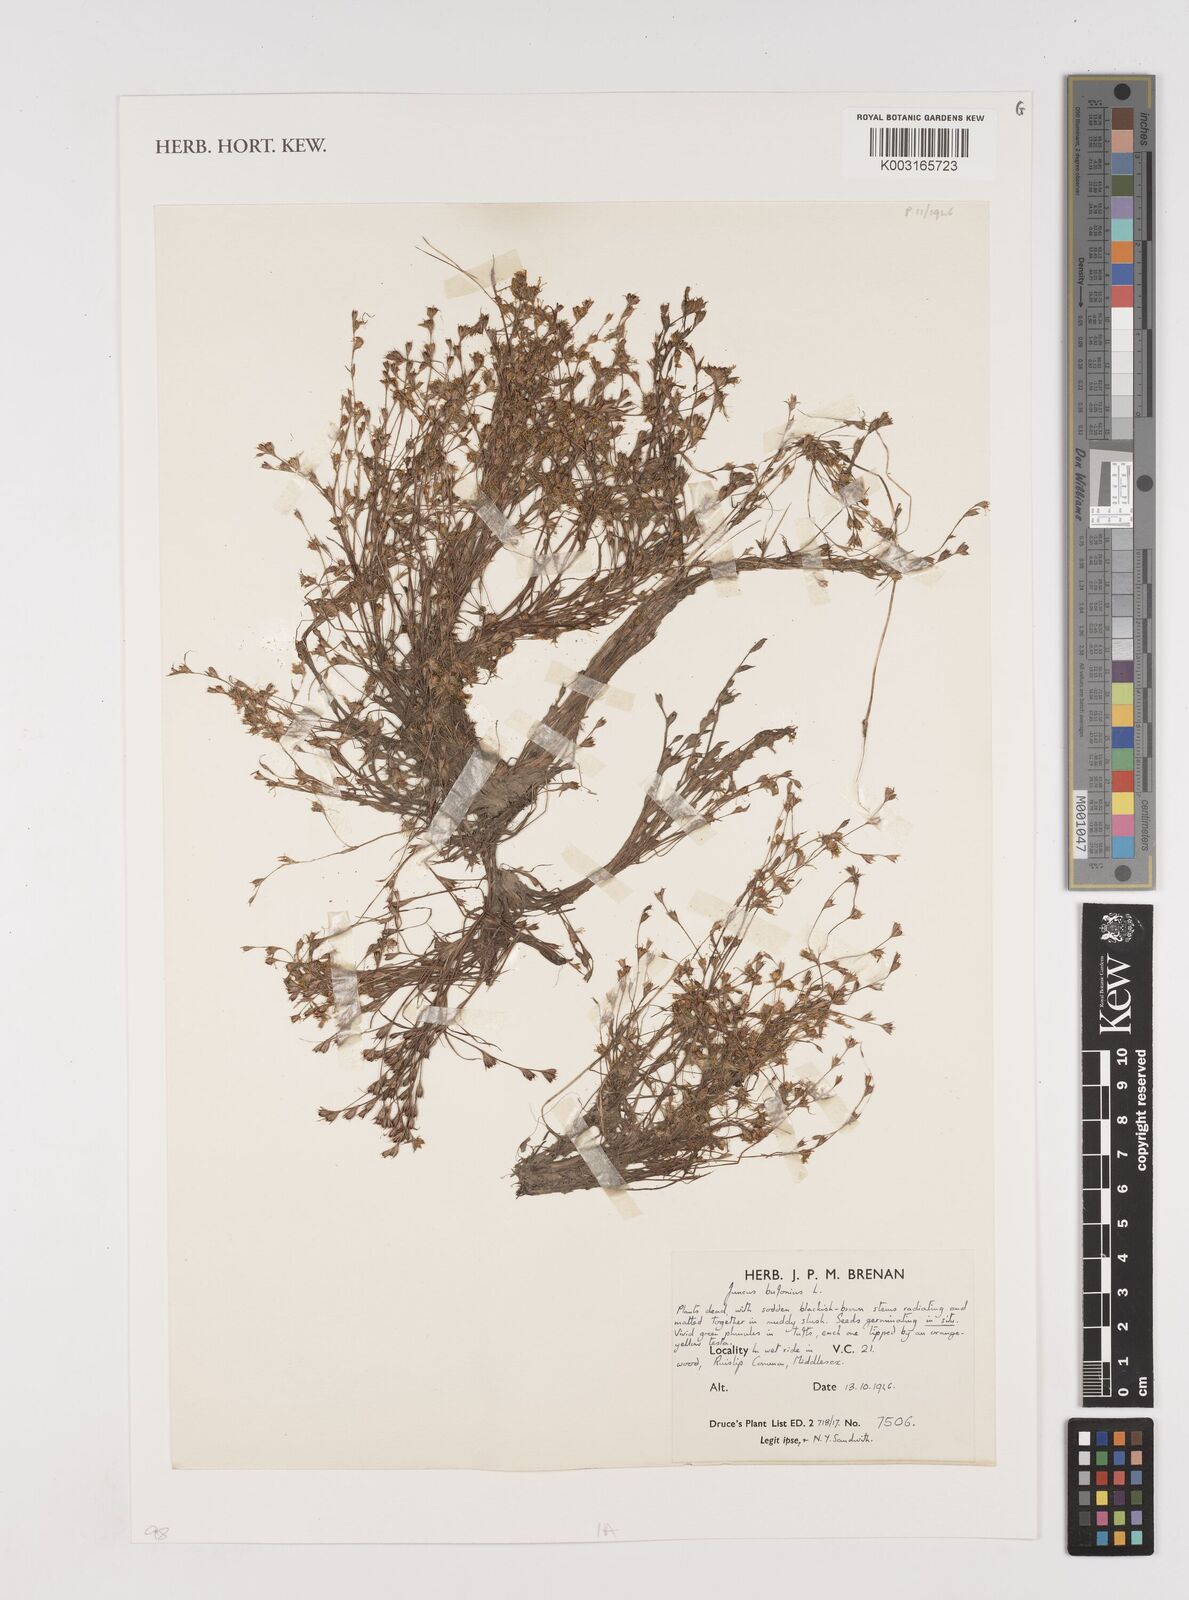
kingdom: Plantae
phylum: Tracheophyta
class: Liliopsida
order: Poales
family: Juncaceae
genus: Juncus
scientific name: Juncus bufonius
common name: Toad rush
